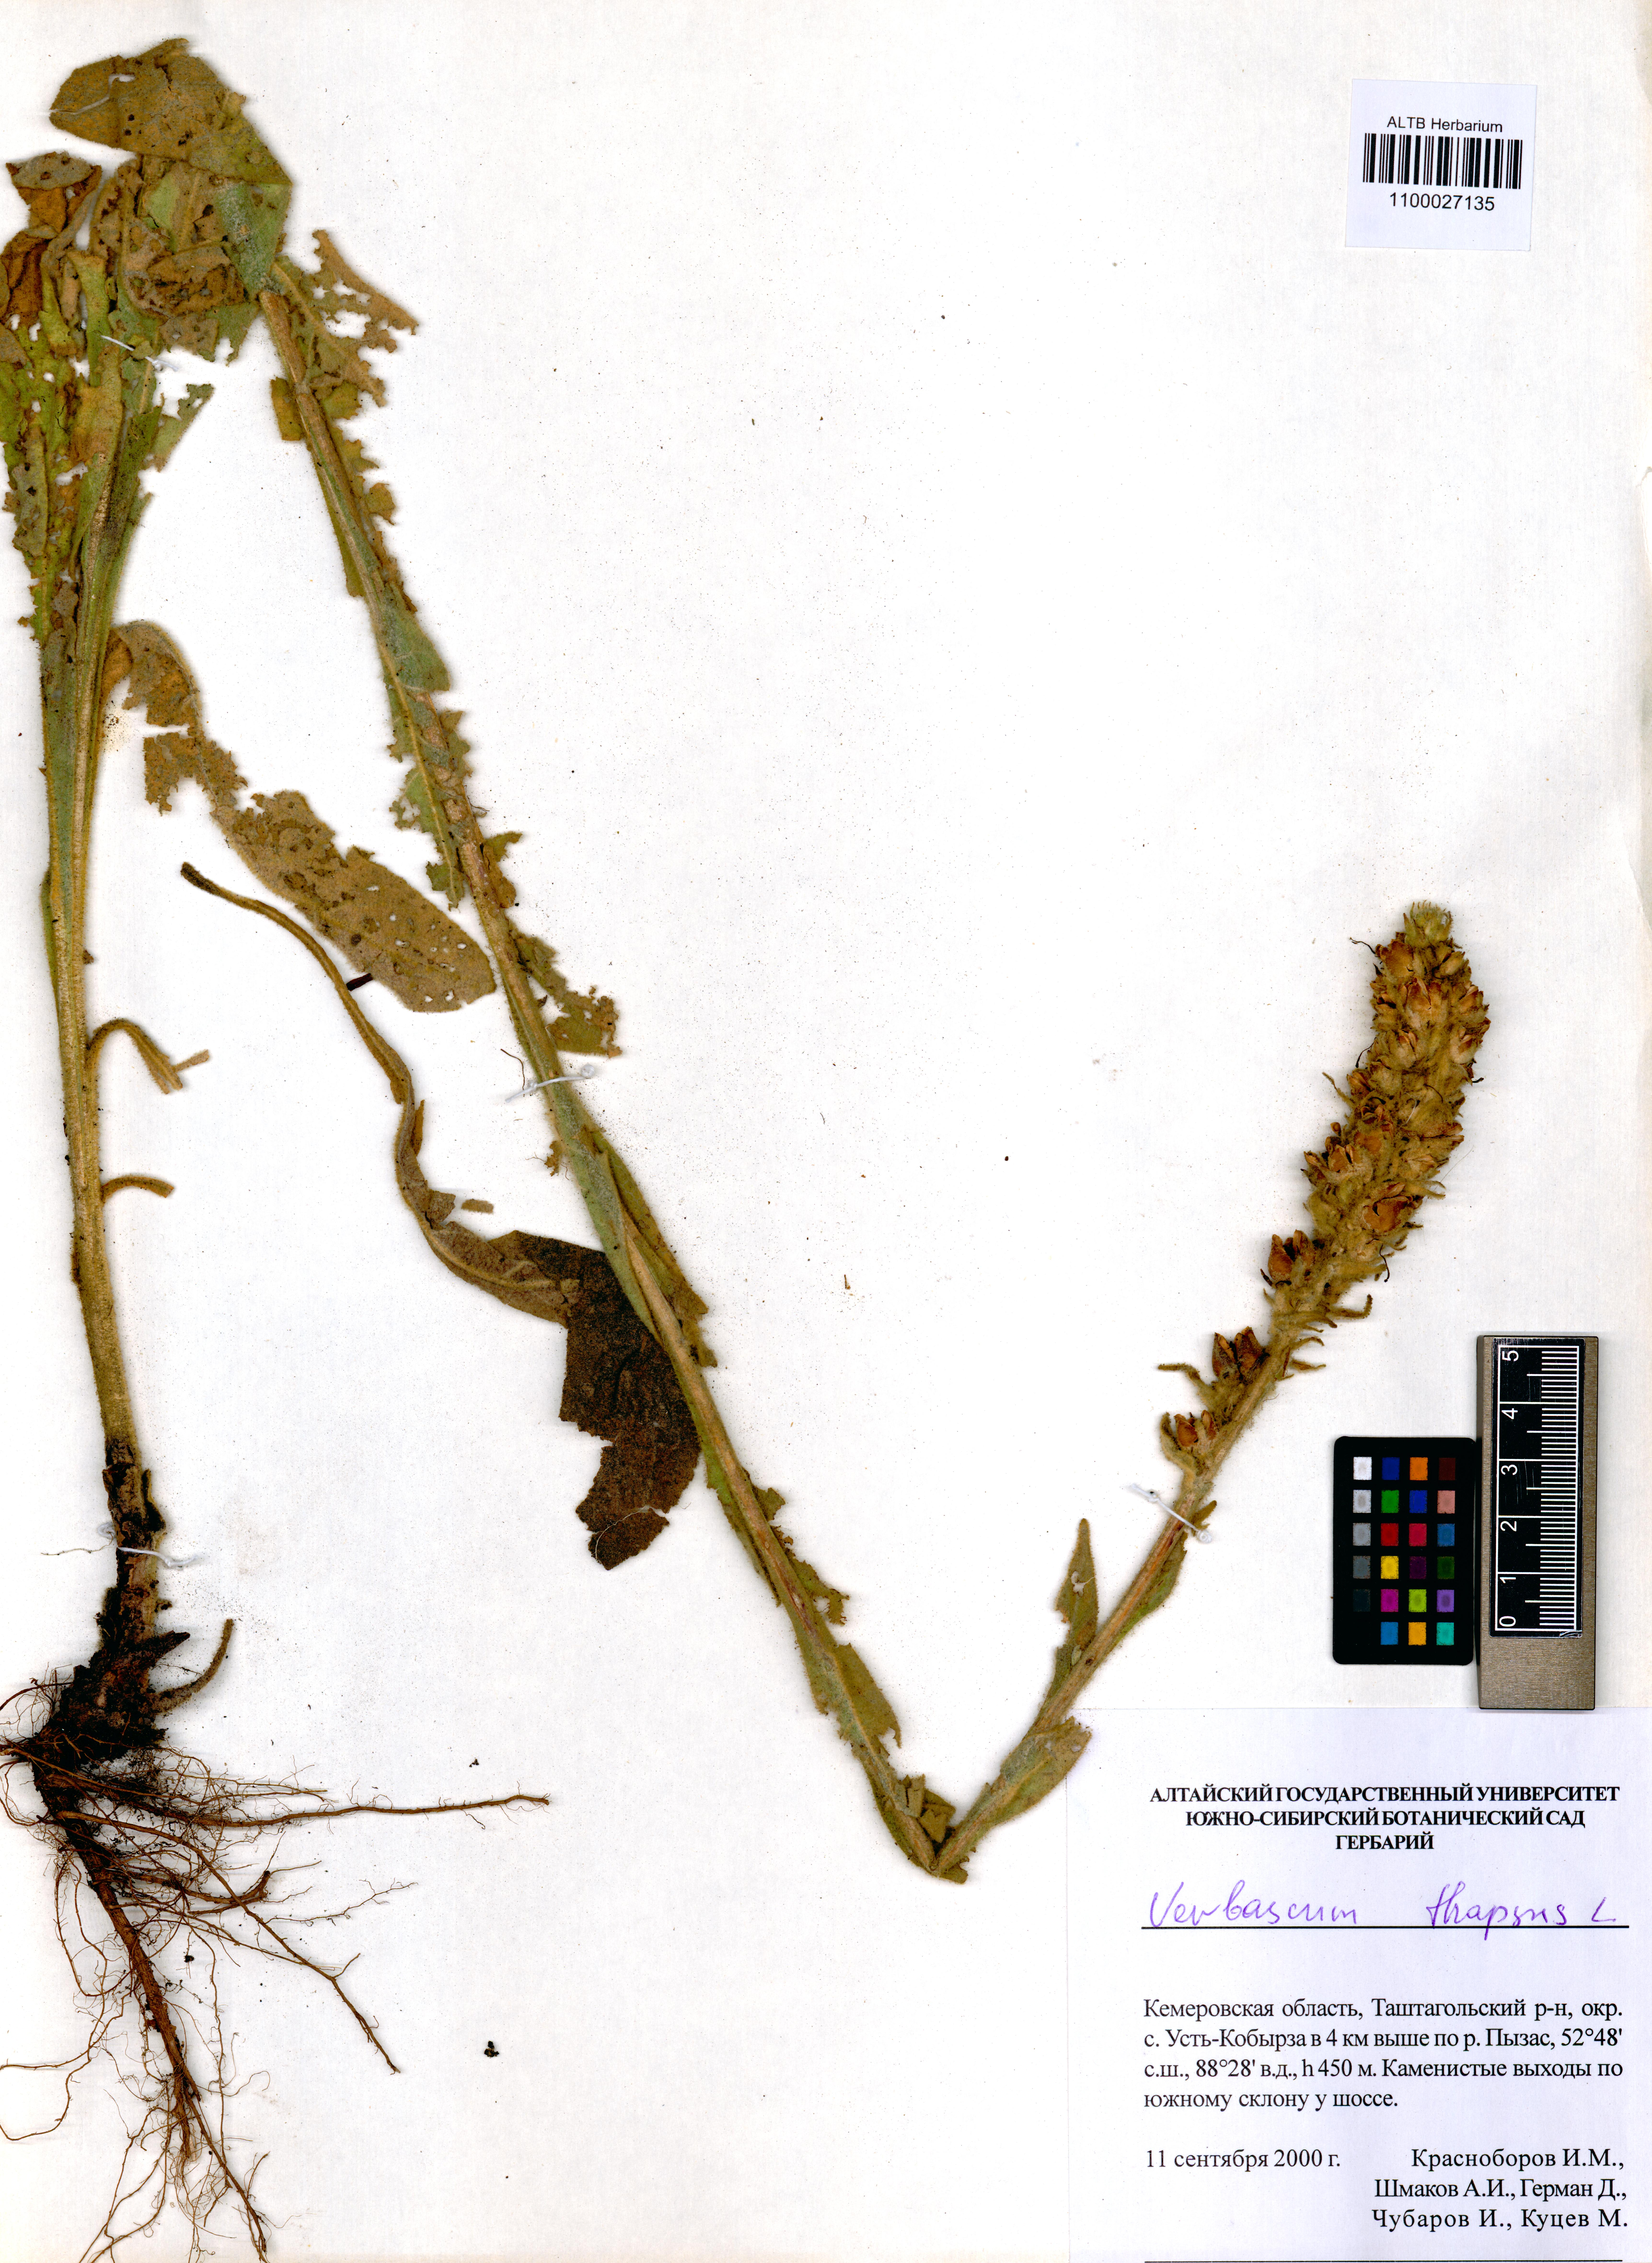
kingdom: Plantae
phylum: Tracheophyta
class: Magnoliopsida
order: Lamiales
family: Scrophulariaceae
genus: Verbascum
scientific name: Verbascum thapsus
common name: Common mullein
